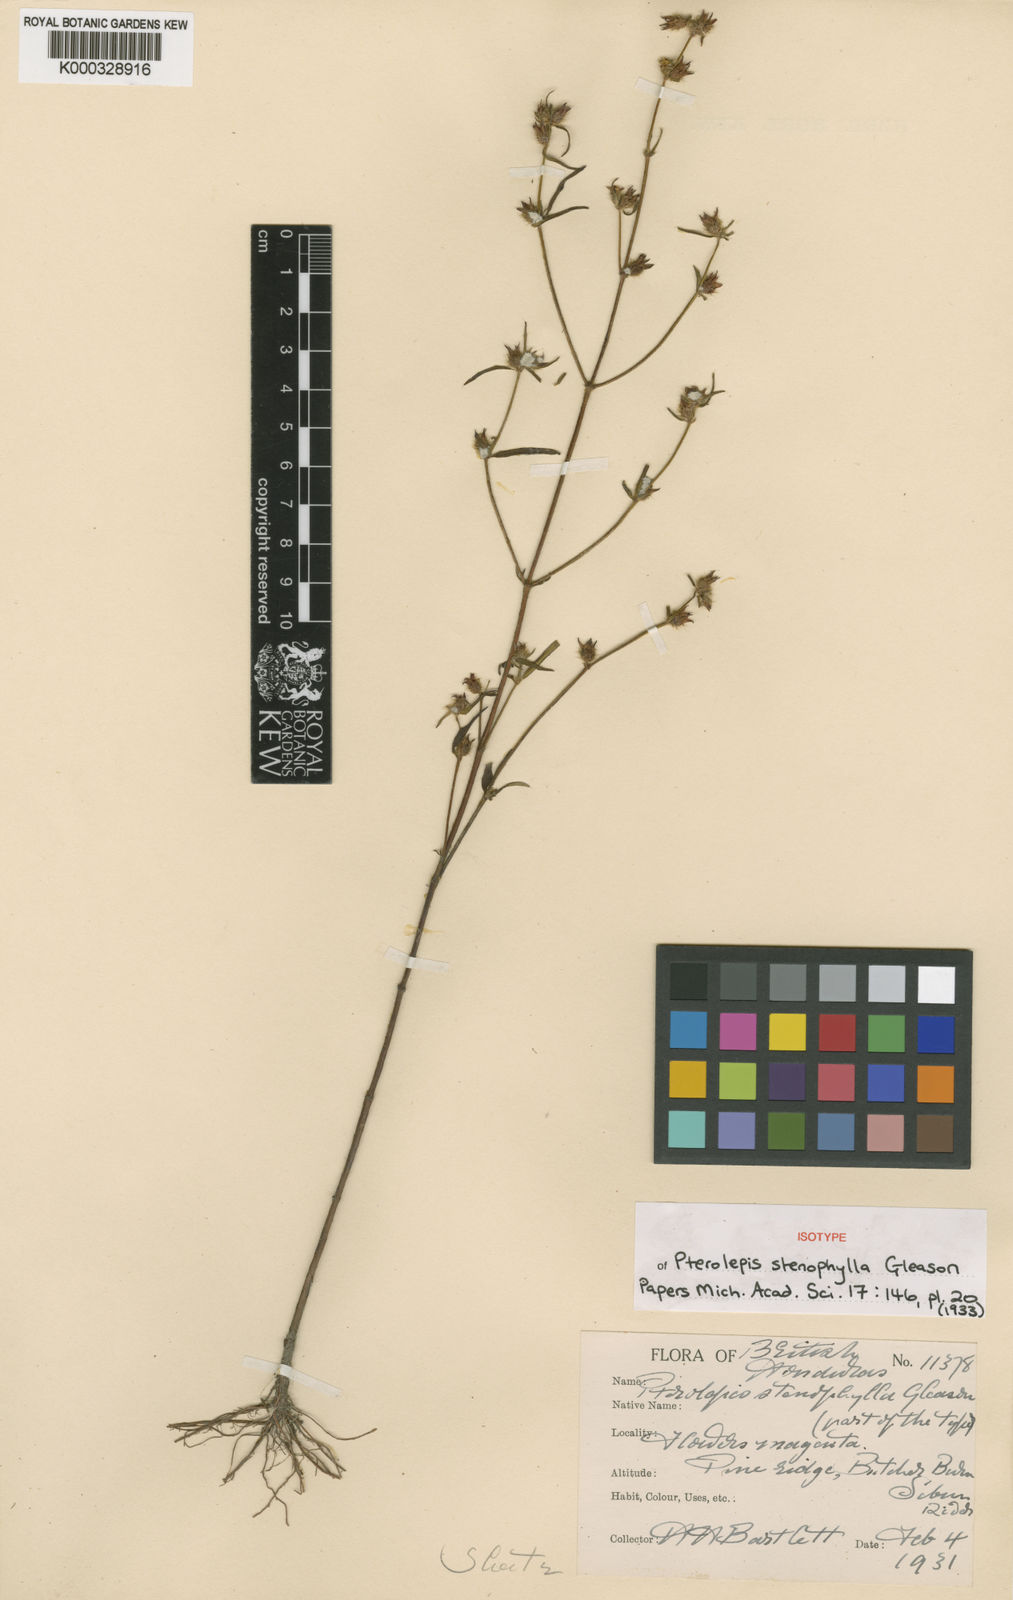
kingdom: Plantae
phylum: Tracheophyta
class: Magnoliopsida
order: Myrtales
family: Melastomataceae
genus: Pterolepis
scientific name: Pterolepis stenophylla
